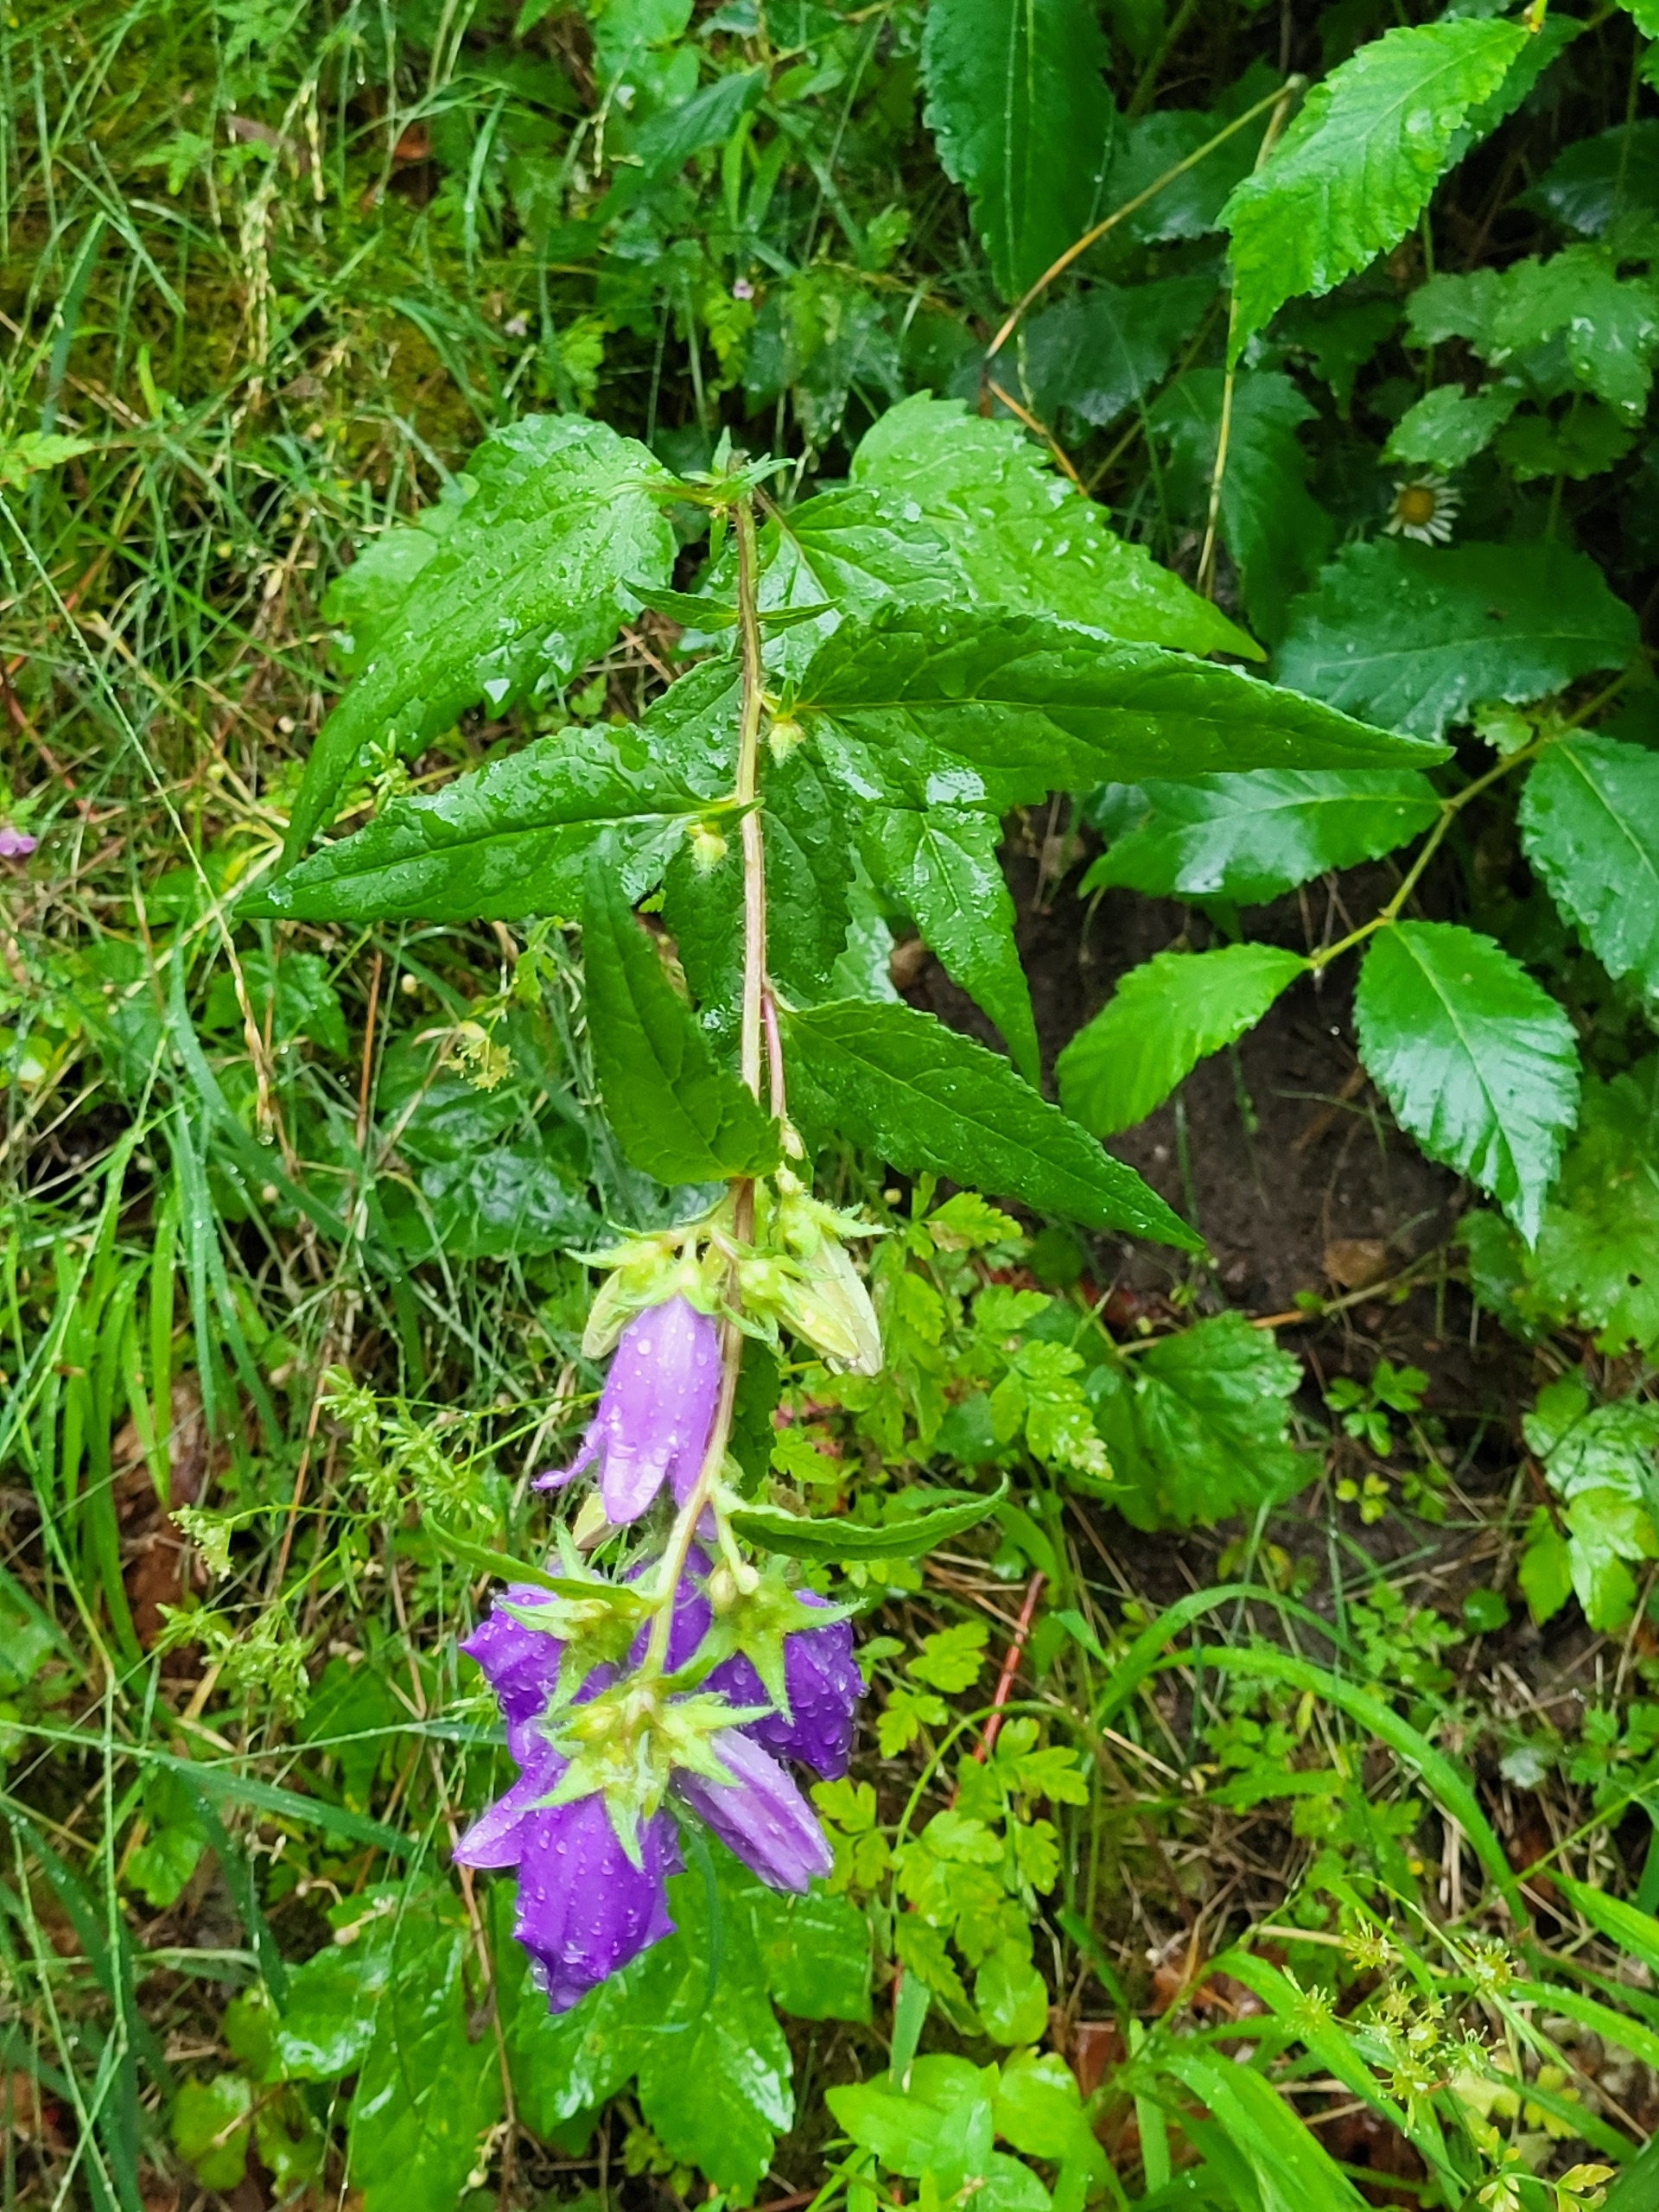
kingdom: Plantae
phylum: Tracheophyta
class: Magnoliopsida
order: Asterales
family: Campanulaceae
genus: Campanula
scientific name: Campanula trachelium
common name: Nælde-klokke
